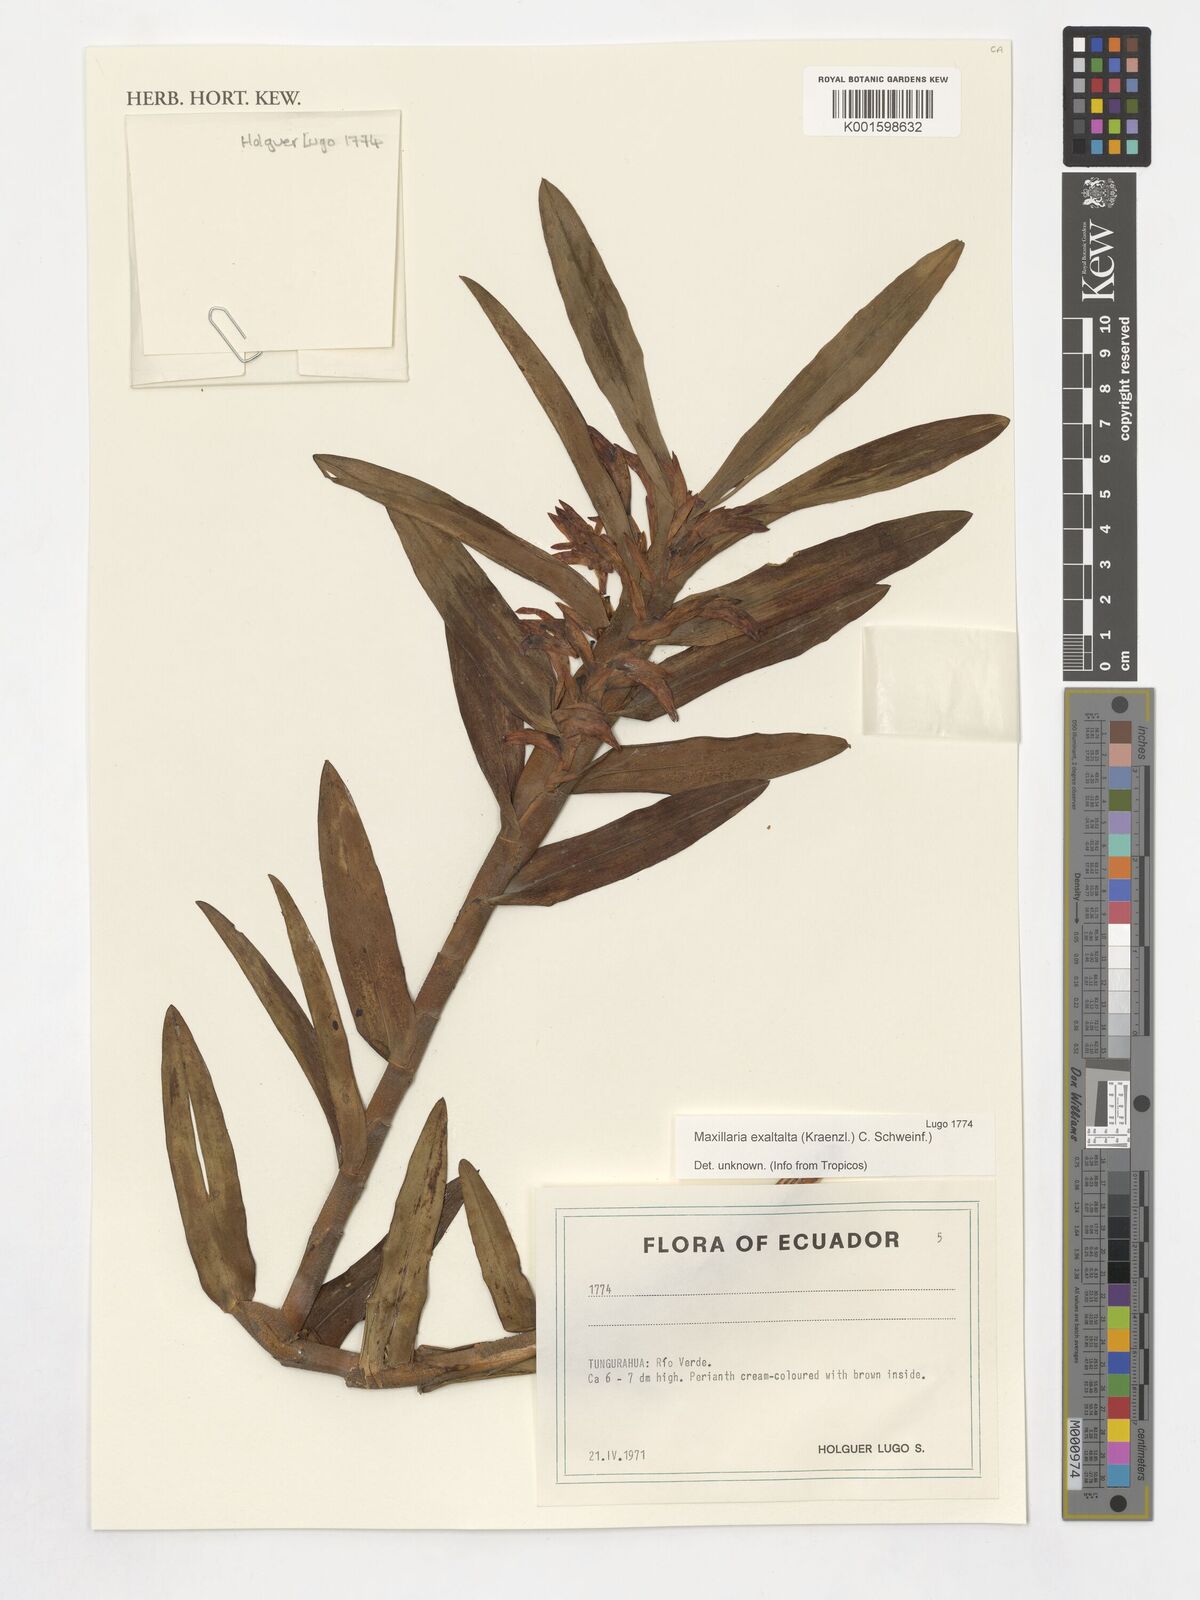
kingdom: Plantae
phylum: Tracheophyta
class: Liliopsida
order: Asparagales
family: Orchidaceae
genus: Maxillaria
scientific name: Maxillaria exaltata
